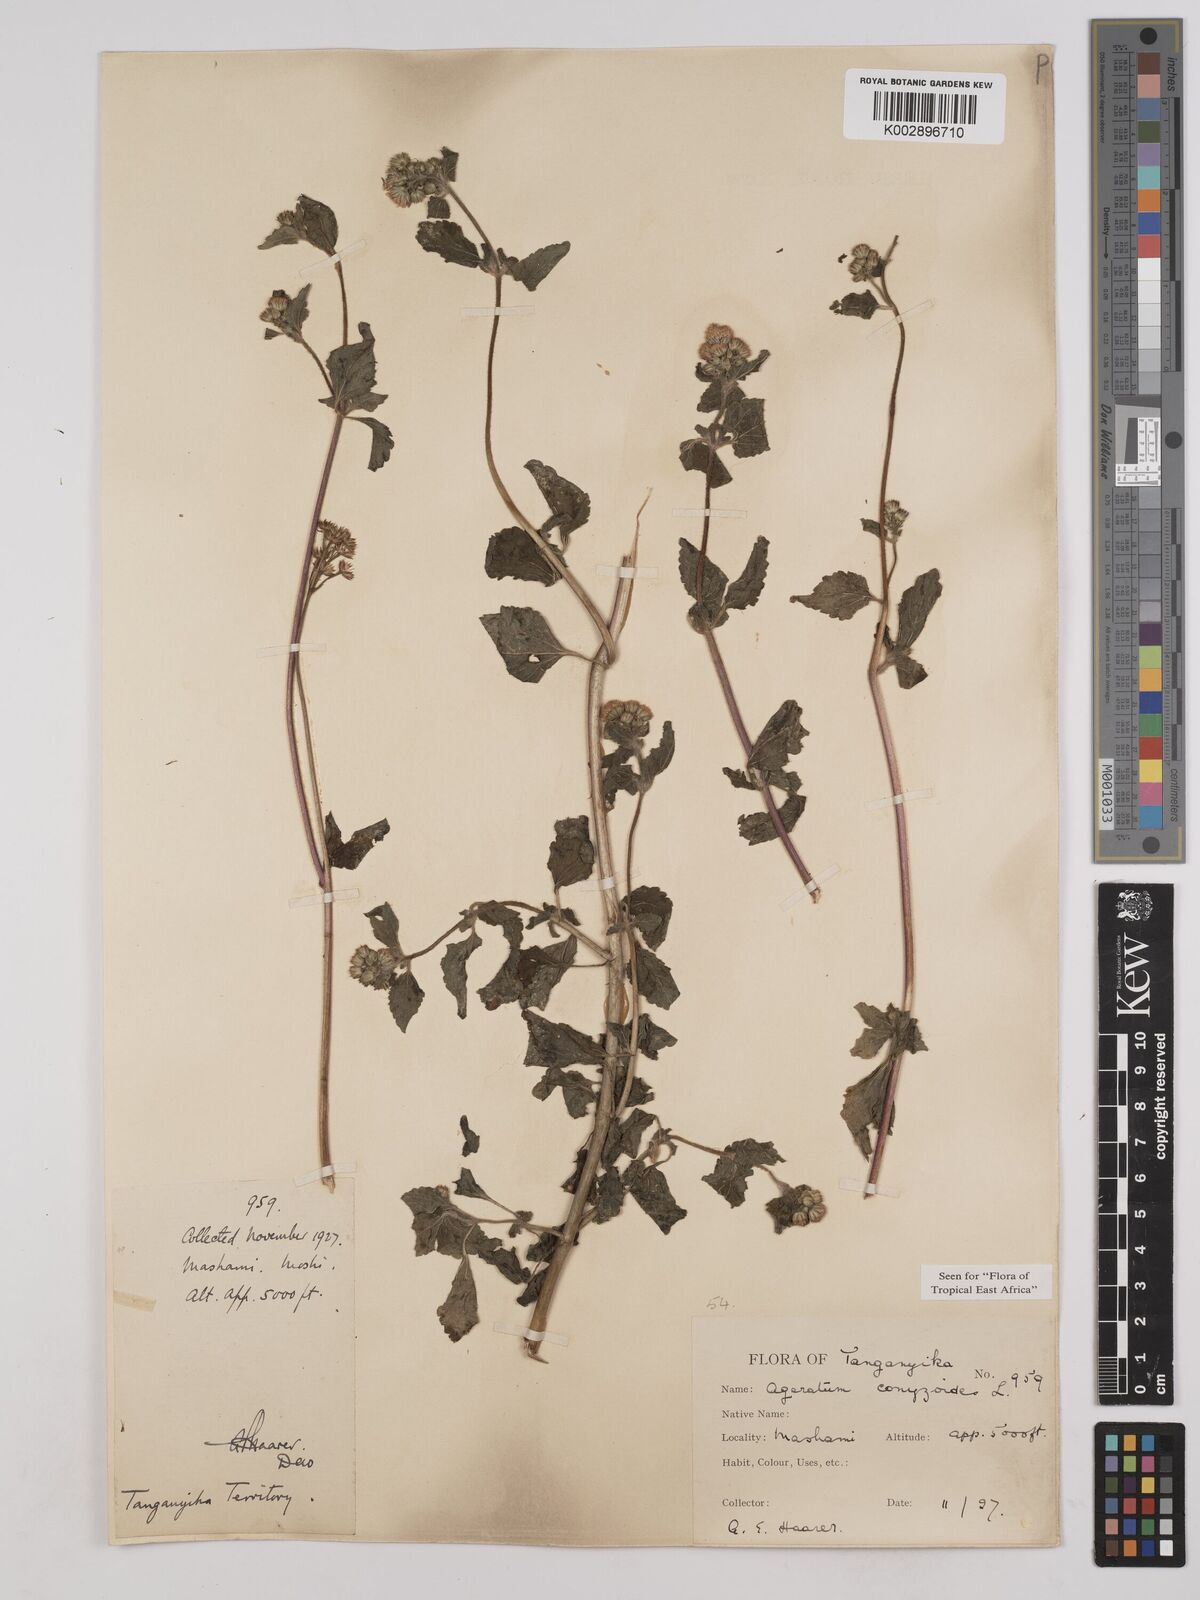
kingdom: Plantae
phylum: Tracheophyta
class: Magnoliopsida
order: Asterales
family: Asteraceae
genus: Ageratum
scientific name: Ageratum conyzoides
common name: Tropical whiteweed
